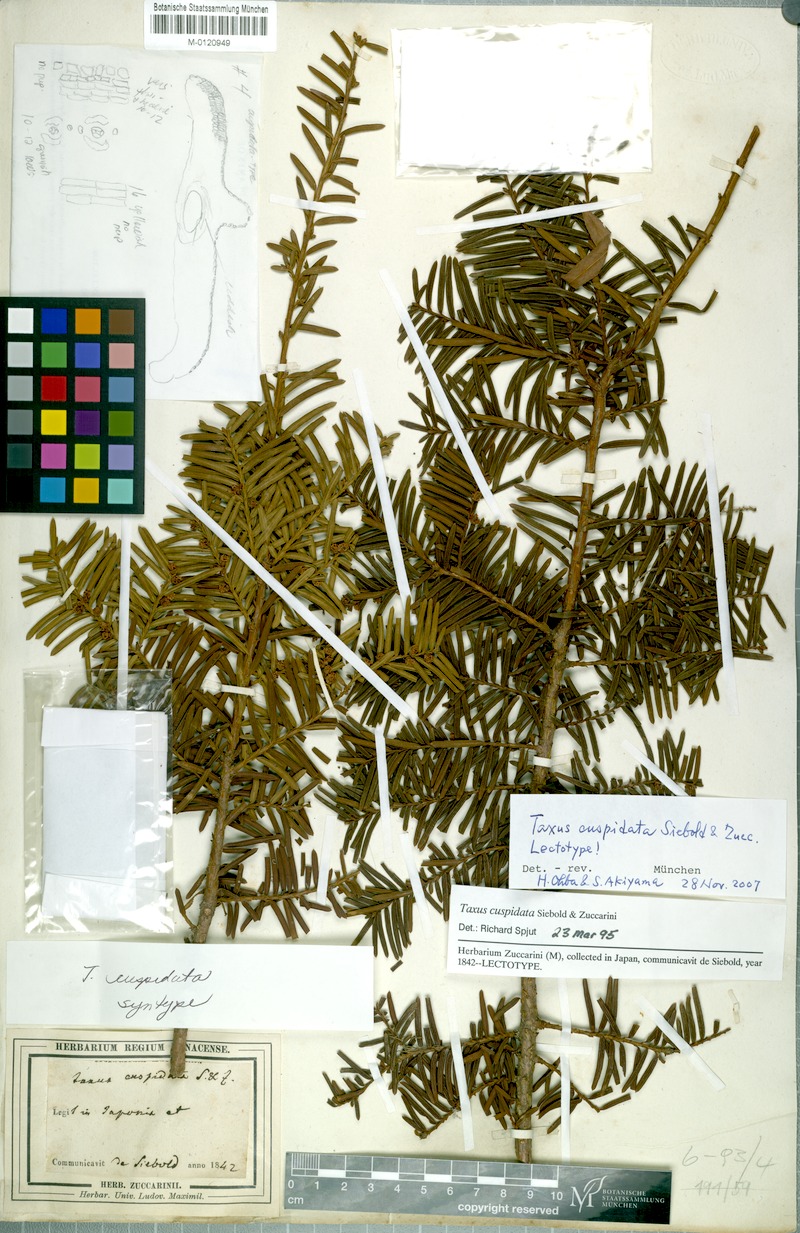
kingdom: Plantae
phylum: Tracheophyta
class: Pinopsida
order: Pinales
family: Taxaceae
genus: Taxus
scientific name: Taxus cuspidata
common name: Japanese yew
